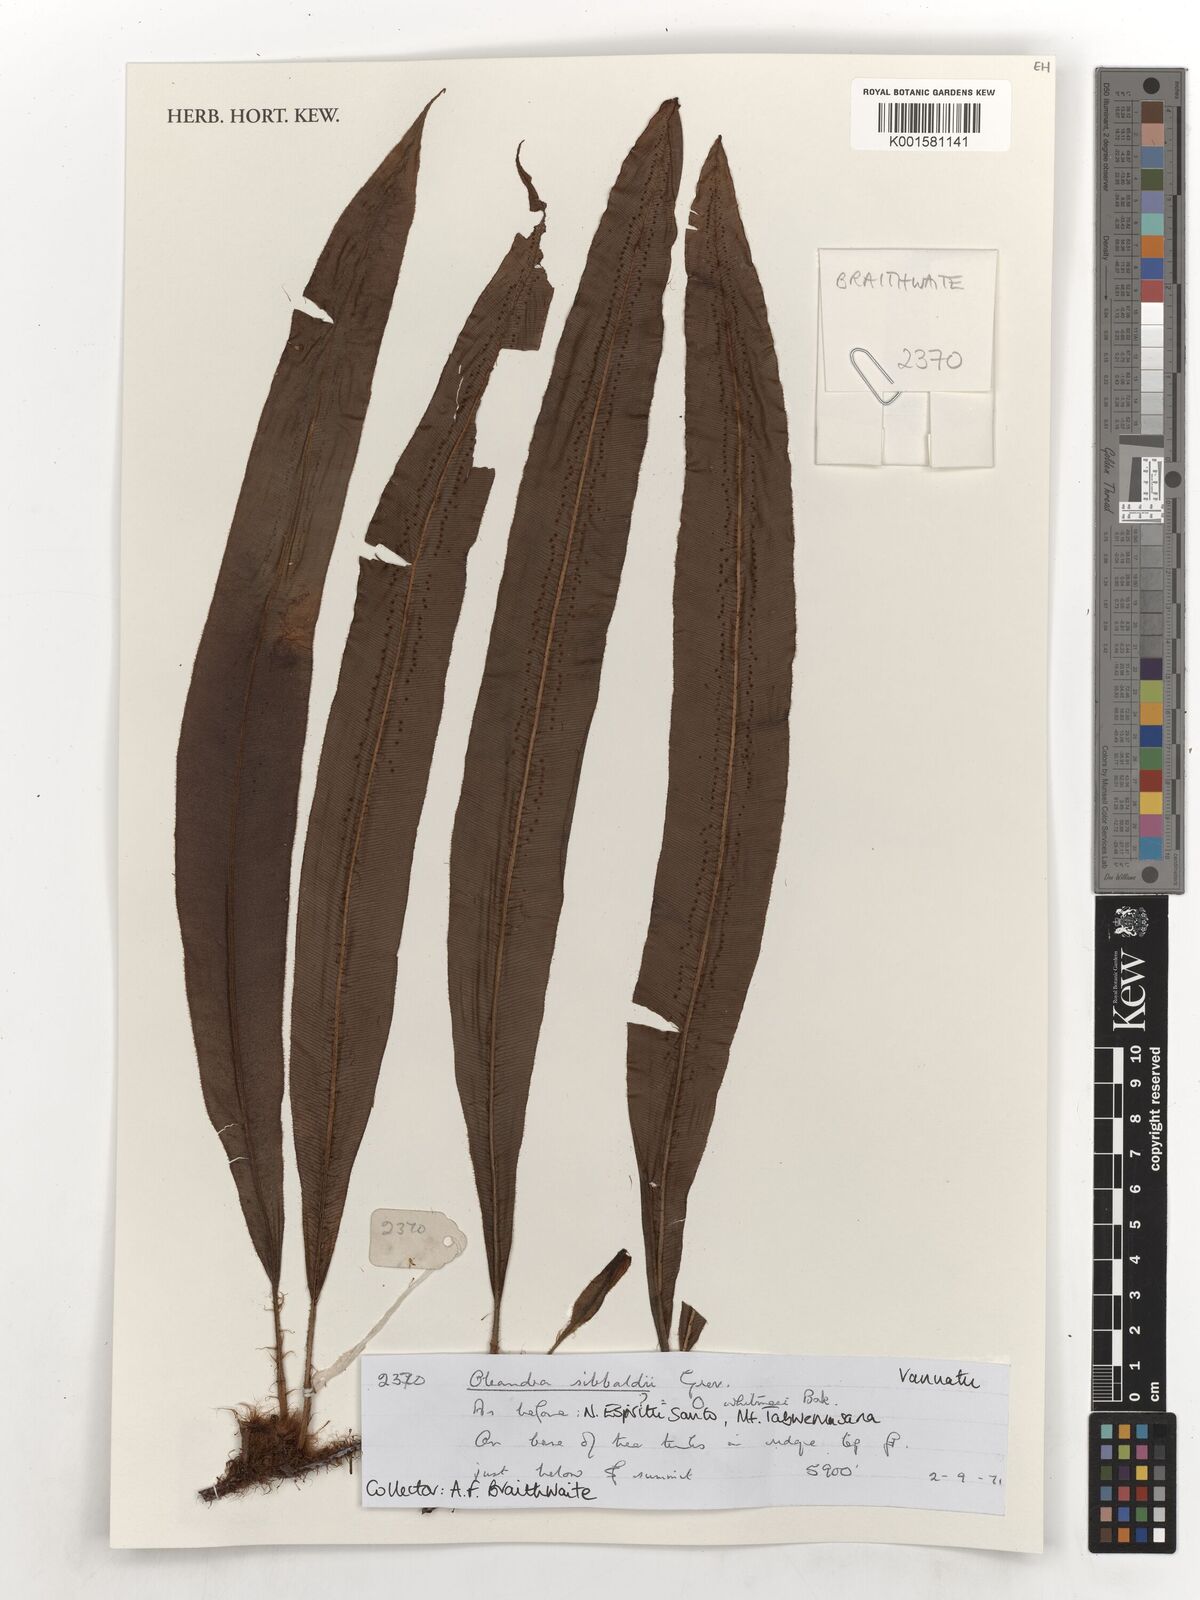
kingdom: Plantae
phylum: Tracheophyta
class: Polypodiopsida
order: Polypodiales
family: Oleandraceae
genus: Oleandra
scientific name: Oleandra sibbaldii
